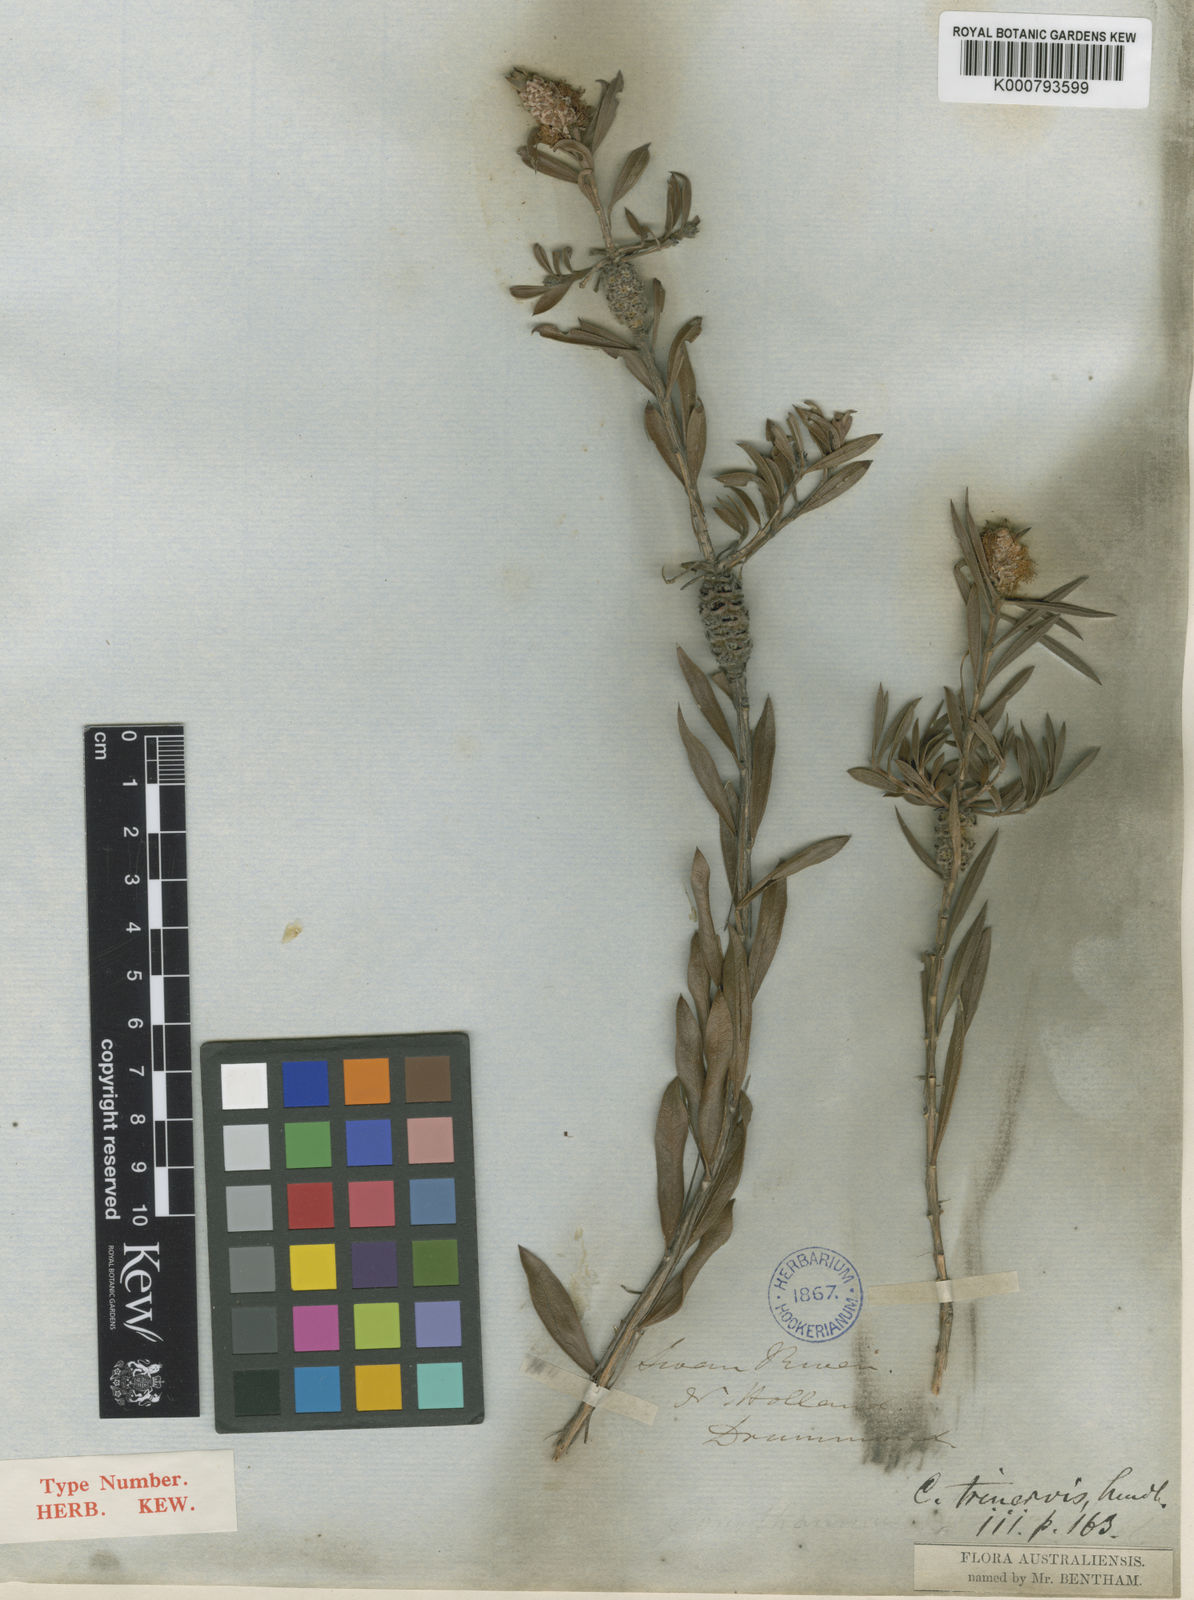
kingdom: Plantae
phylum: Tracheophyta
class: Magnoliopsida
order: Myrtales
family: Myrtaceae
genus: Melaleuca
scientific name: Melaleuca cowleyae
